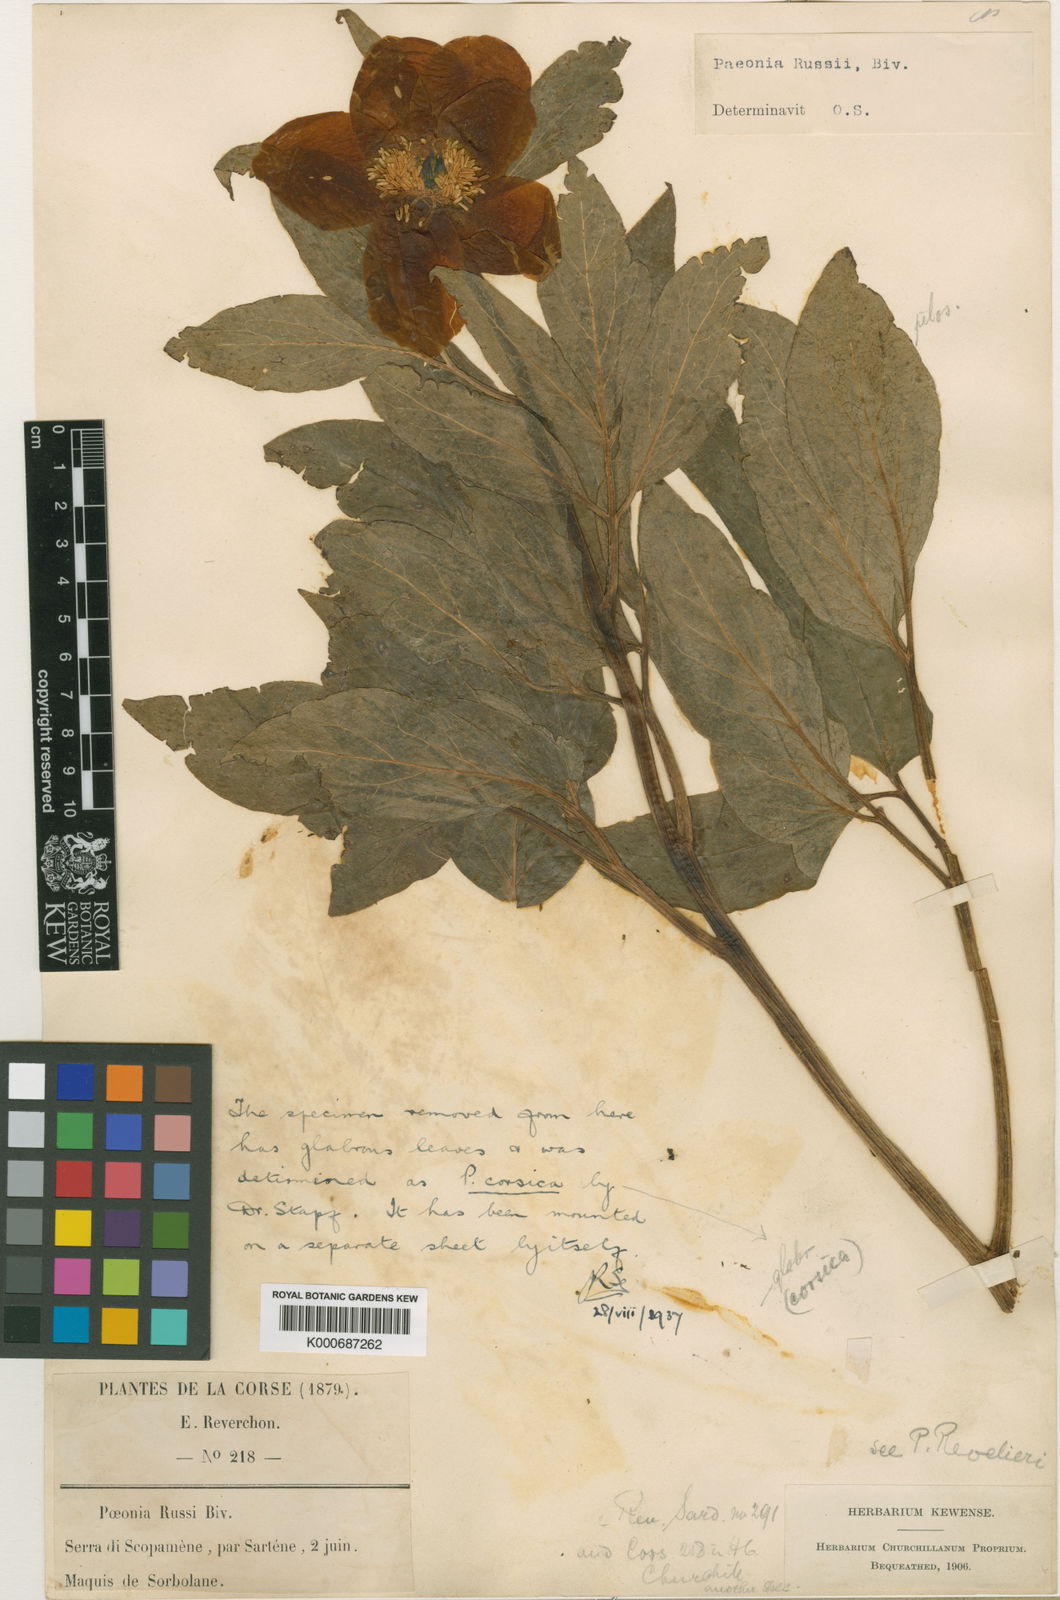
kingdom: Plantae
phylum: Tracheophyta
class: Magnoliopsida
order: Saxifragales
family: Paeoniaceae
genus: Paeonia
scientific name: Paeonia mascula
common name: Peony
